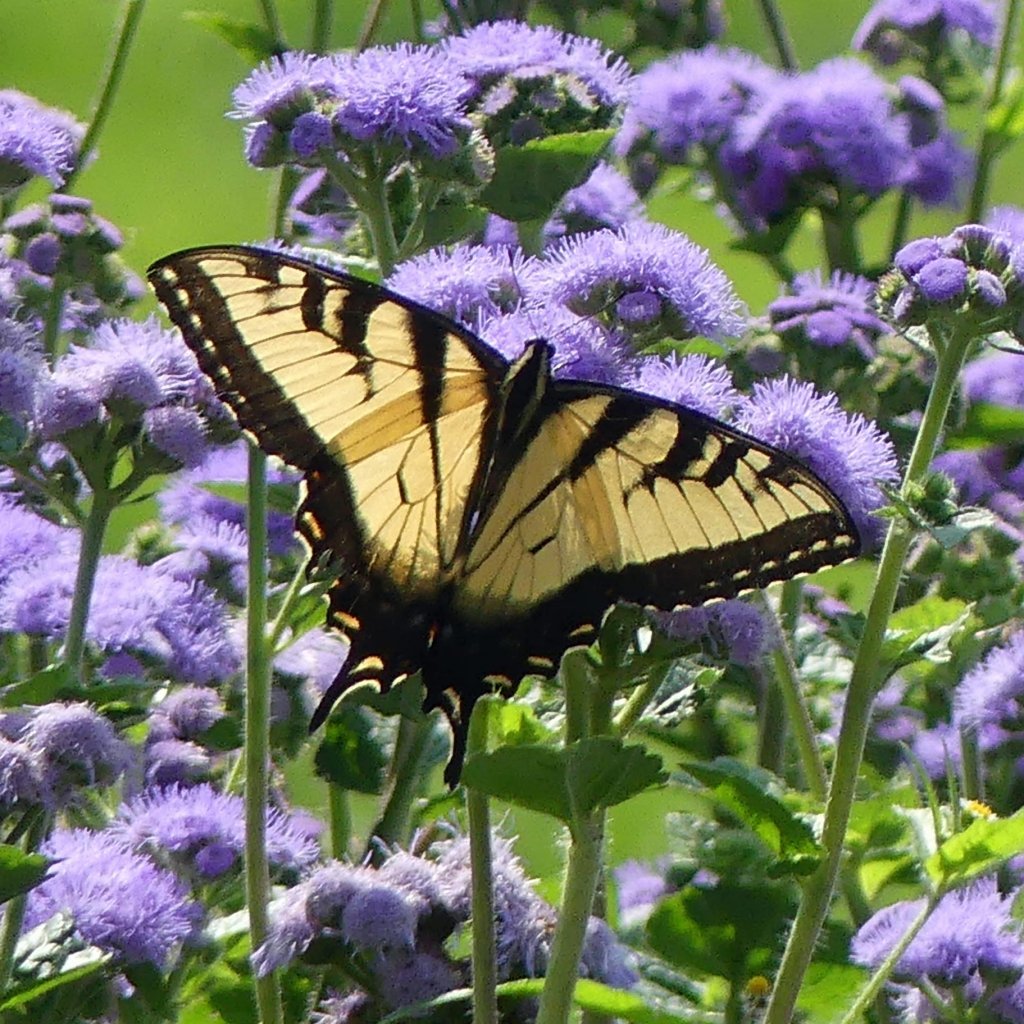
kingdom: Animalia
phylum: Arthropoda
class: Insecta
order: Lepidoptera
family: Papilionidae
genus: Pterourus
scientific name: Pterourus glaucus
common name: Eastern Tiger Swallowtail
